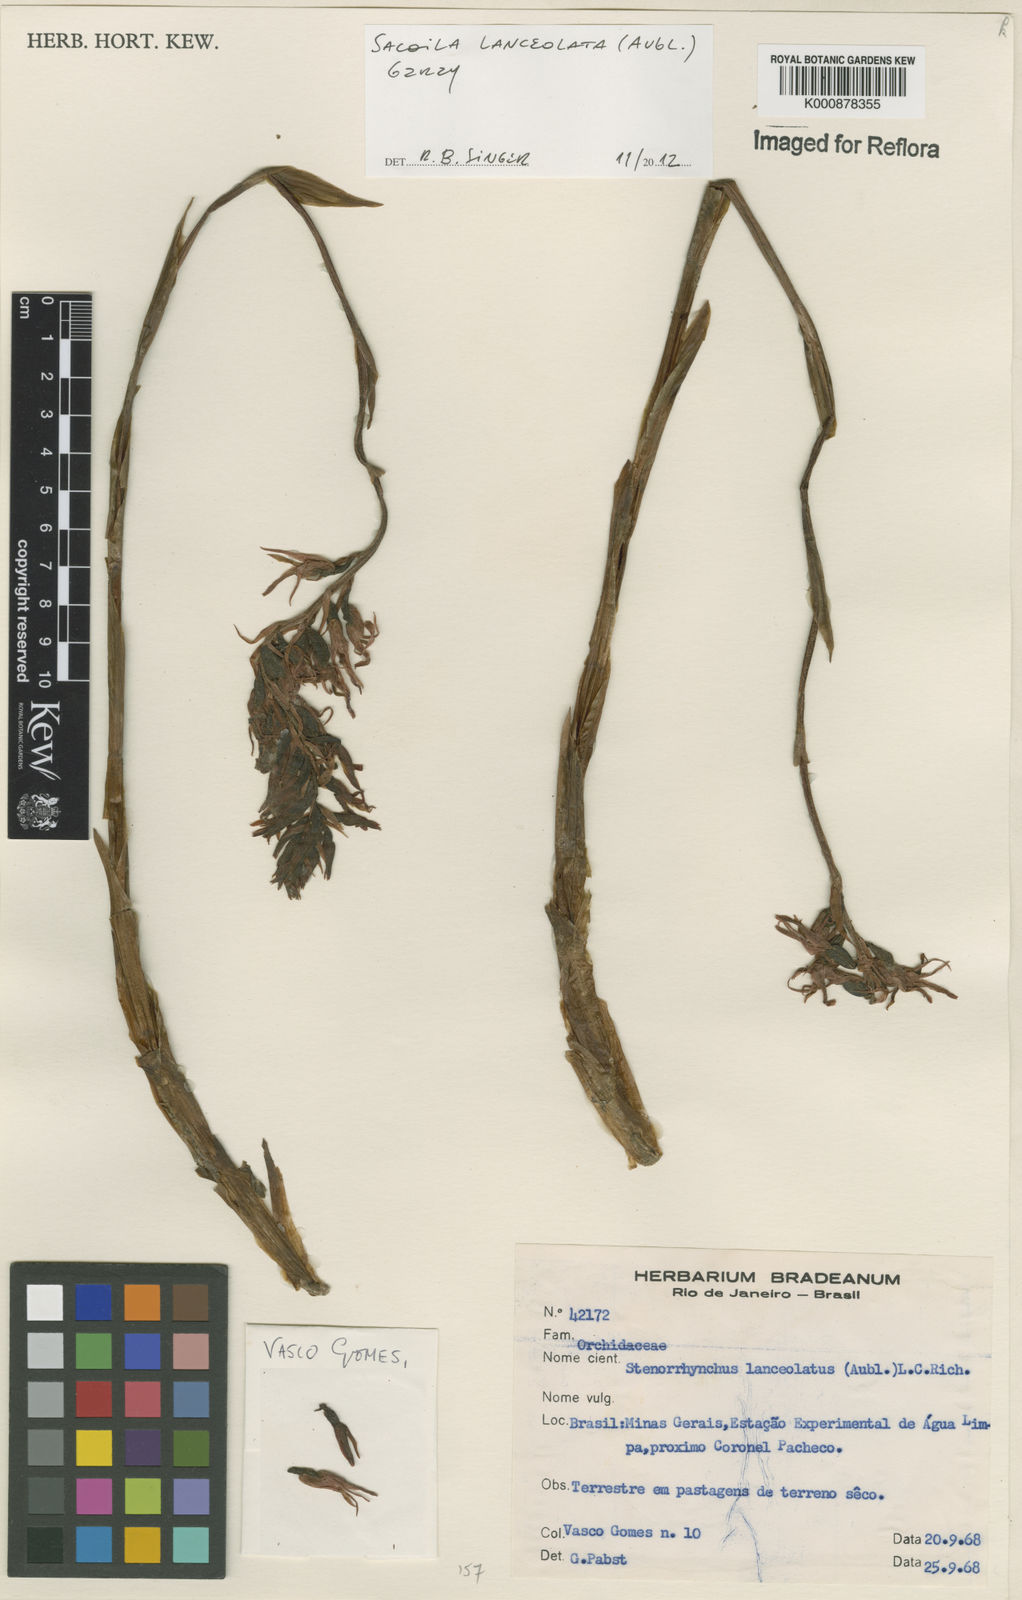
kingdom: Plantae
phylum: Tracheophyta
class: Liliopsida
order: Asparagales
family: Orchidaceae
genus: Sacoila
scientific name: Sacoila lanceolata
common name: Leafless beaked ladiestresses
